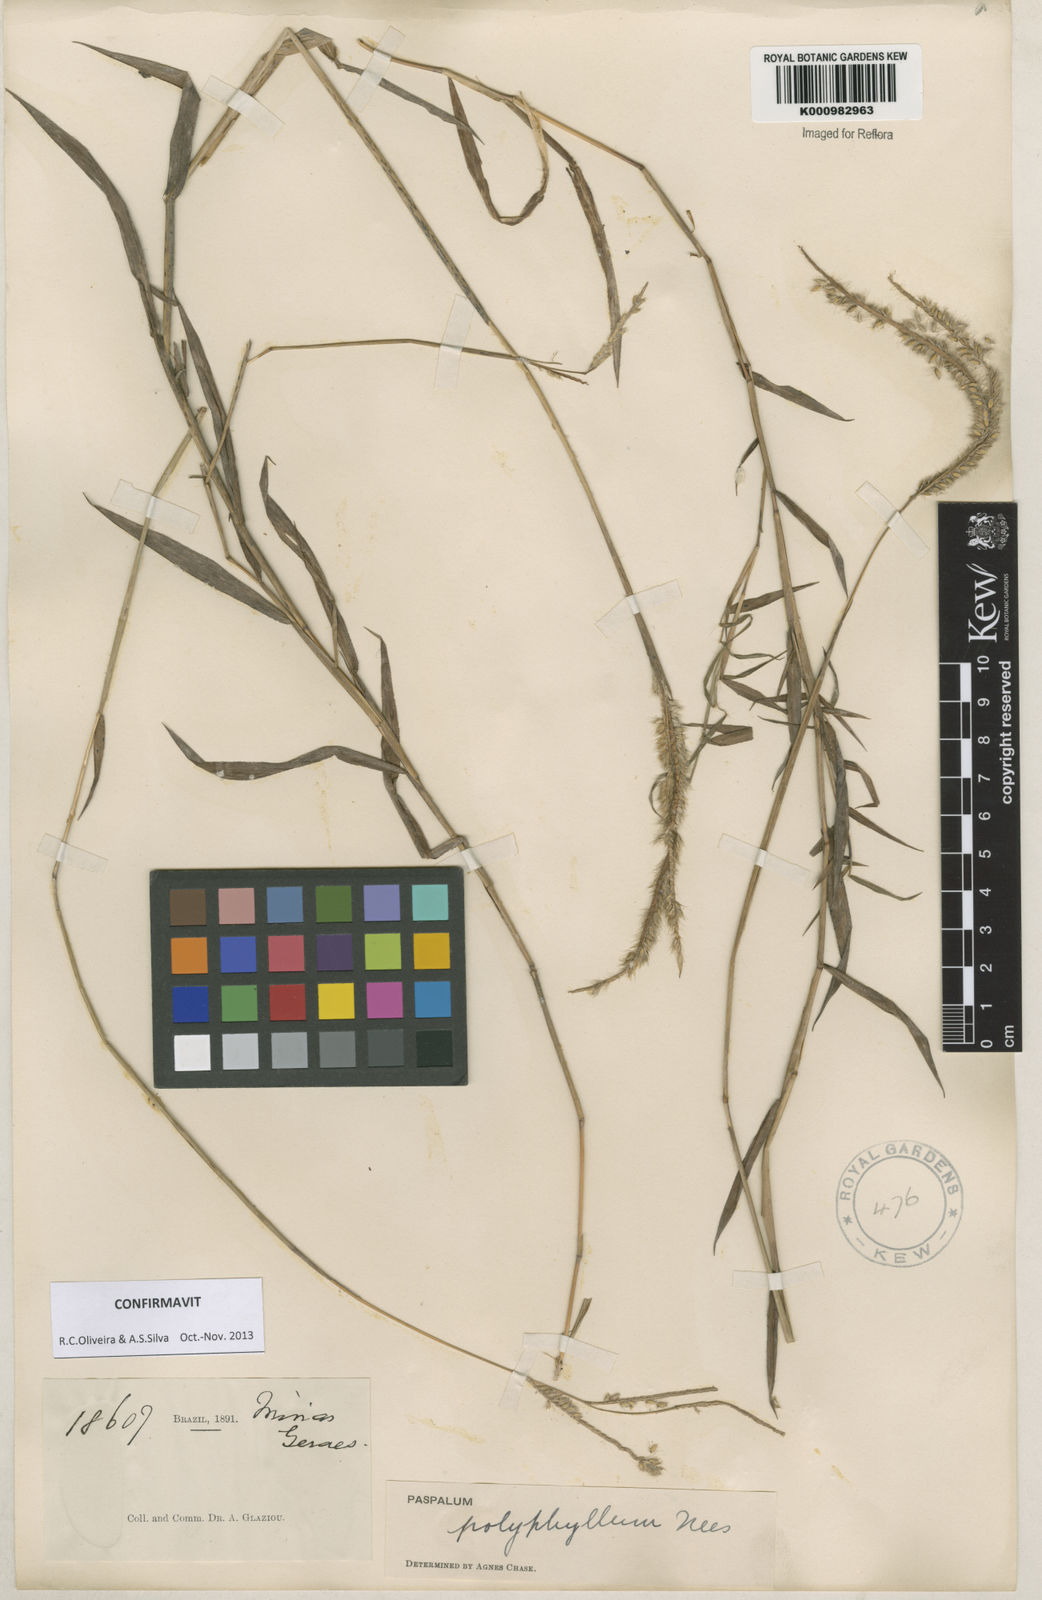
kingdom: Plantae
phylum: Tracheophyta
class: Liliopsida
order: Poales
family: Poaceae
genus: Paspalum
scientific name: Paspalum
